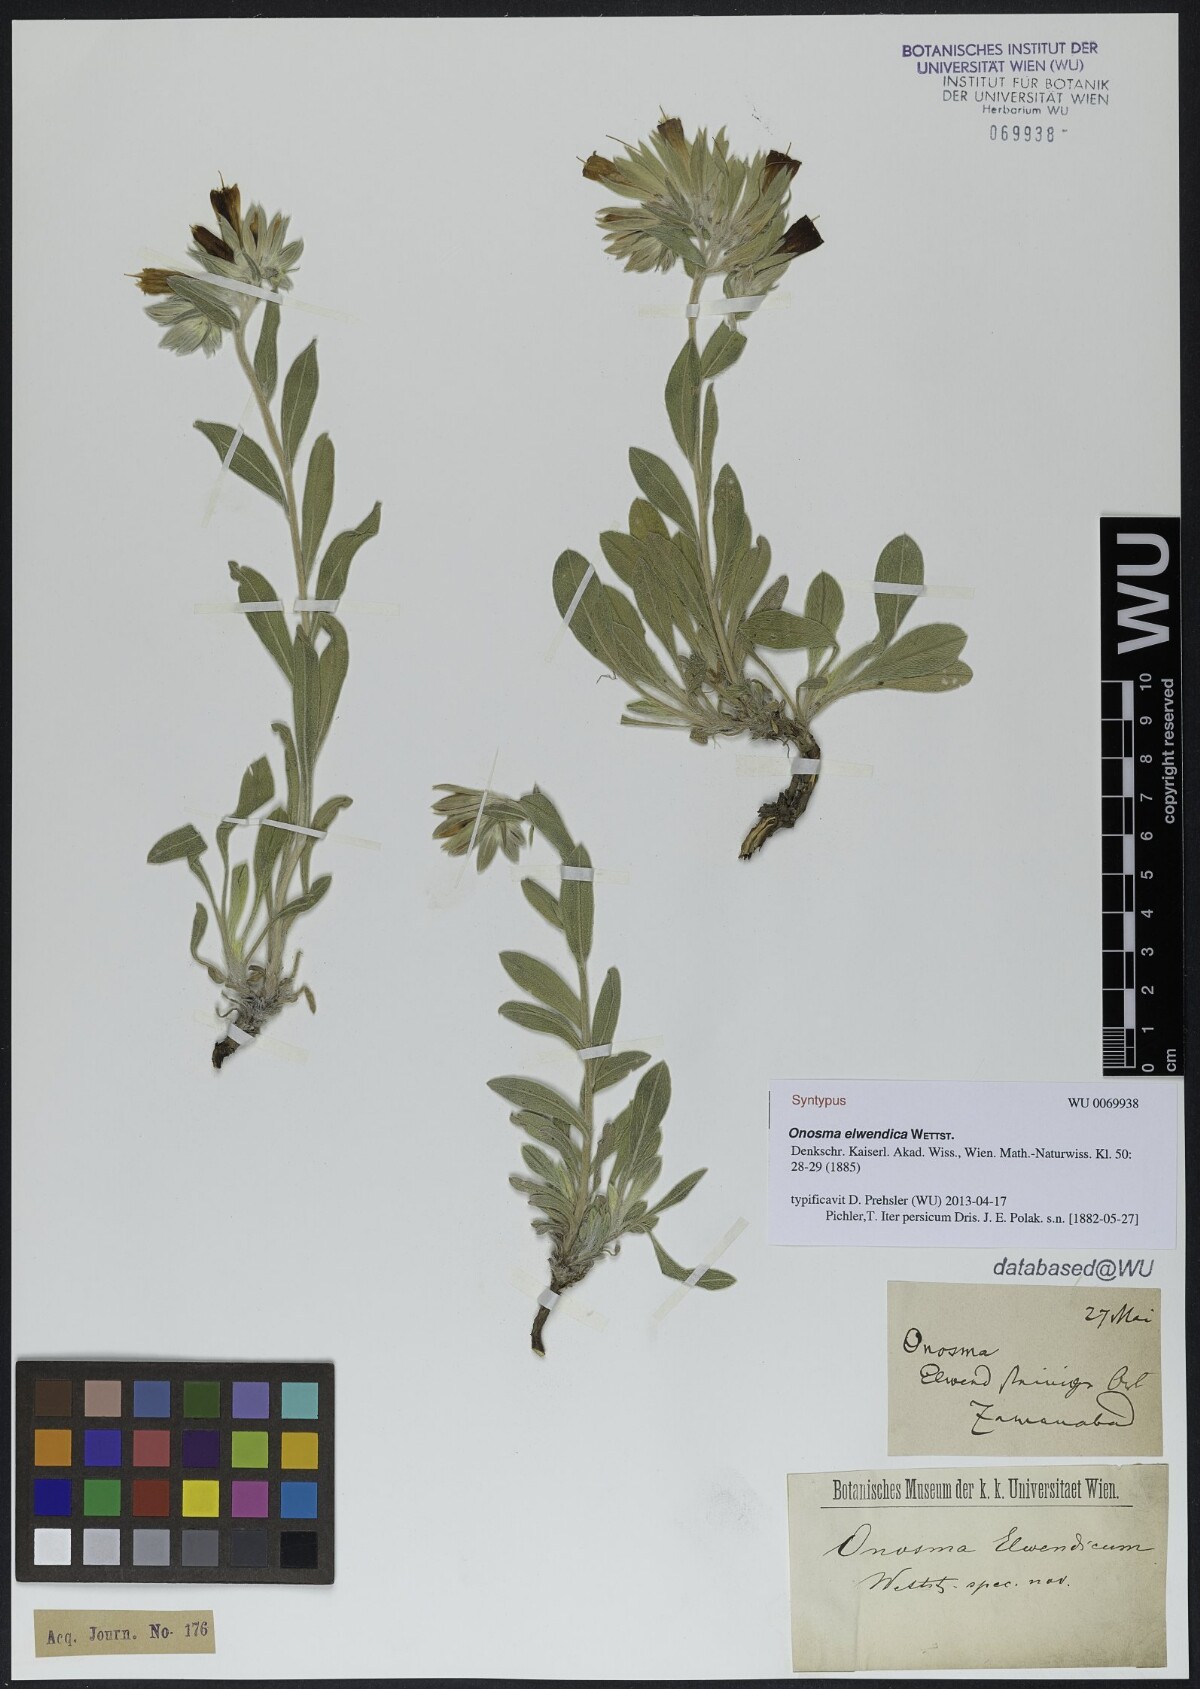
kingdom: Plantae
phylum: Tracheophyta
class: Magnoliopsida
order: Boraginales
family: Boraginaceae
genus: Onosma
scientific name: Onosma elwendica
